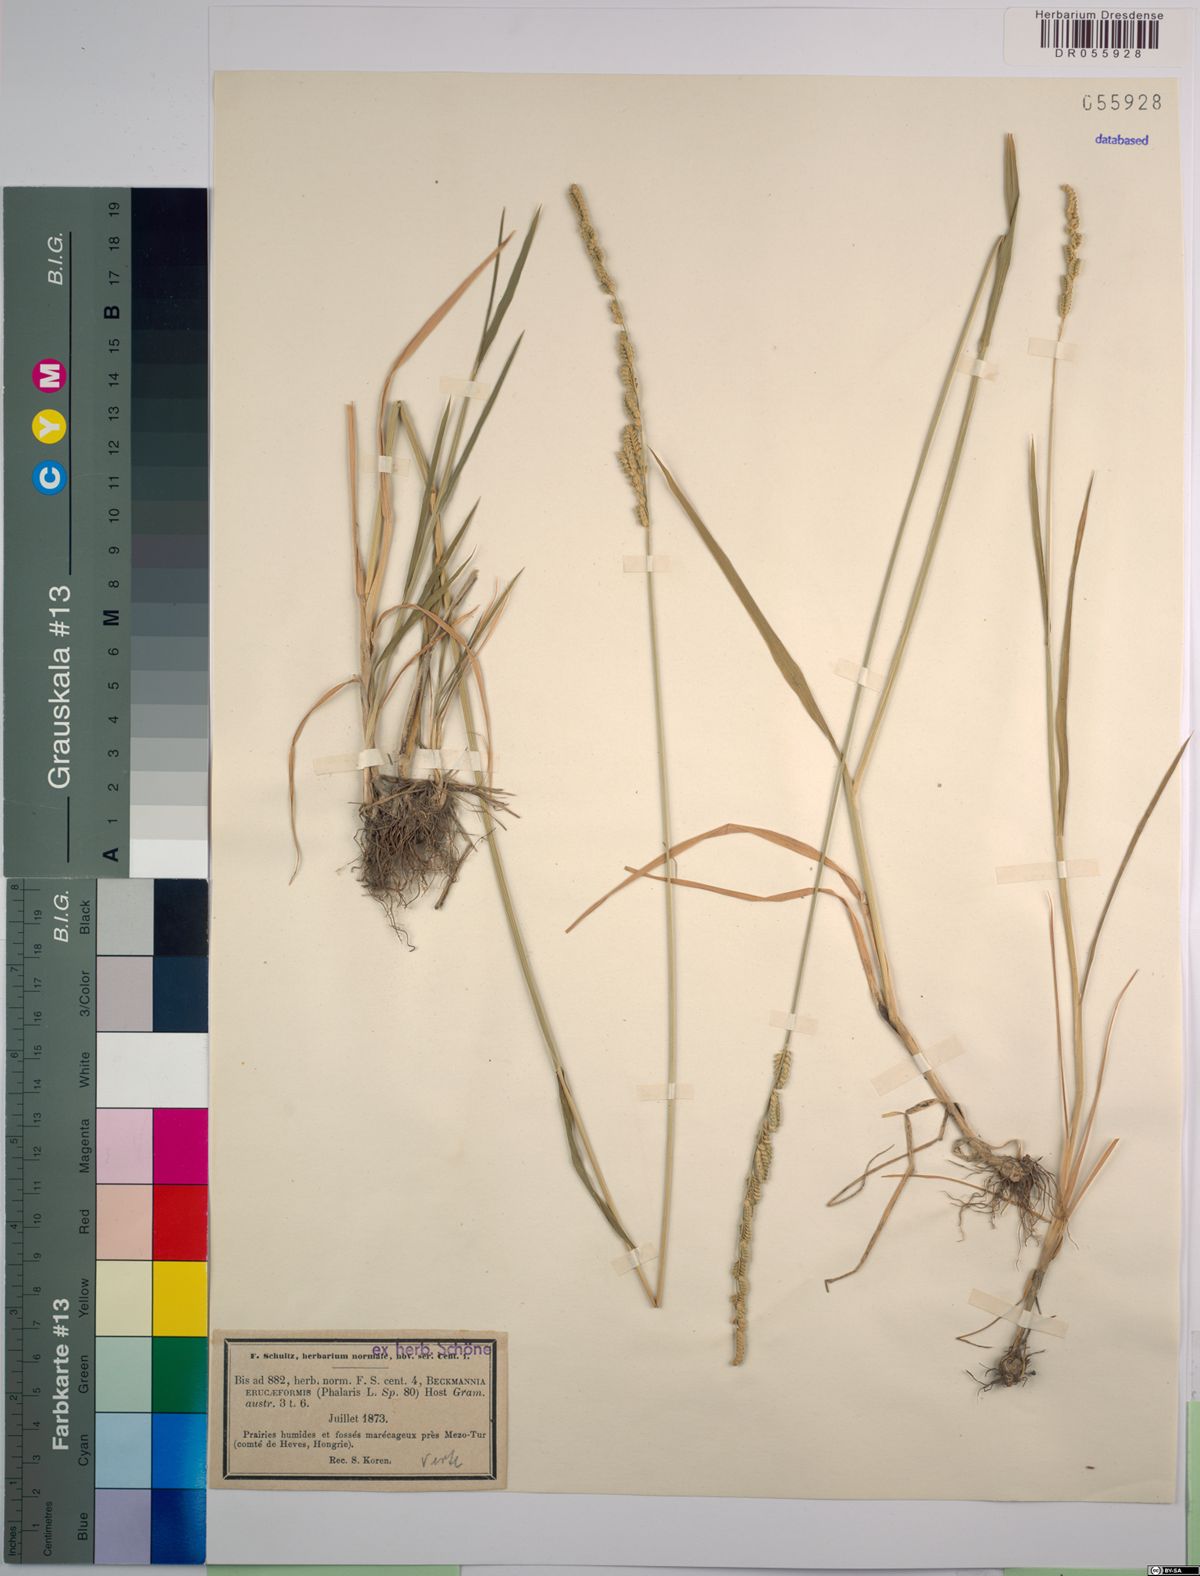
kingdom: Plantae
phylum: Tracheophyta
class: Liliopsida
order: Poales
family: Poaceae
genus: Beckmannia
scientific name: Beckmannia eruciformis
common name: European slough-grass
